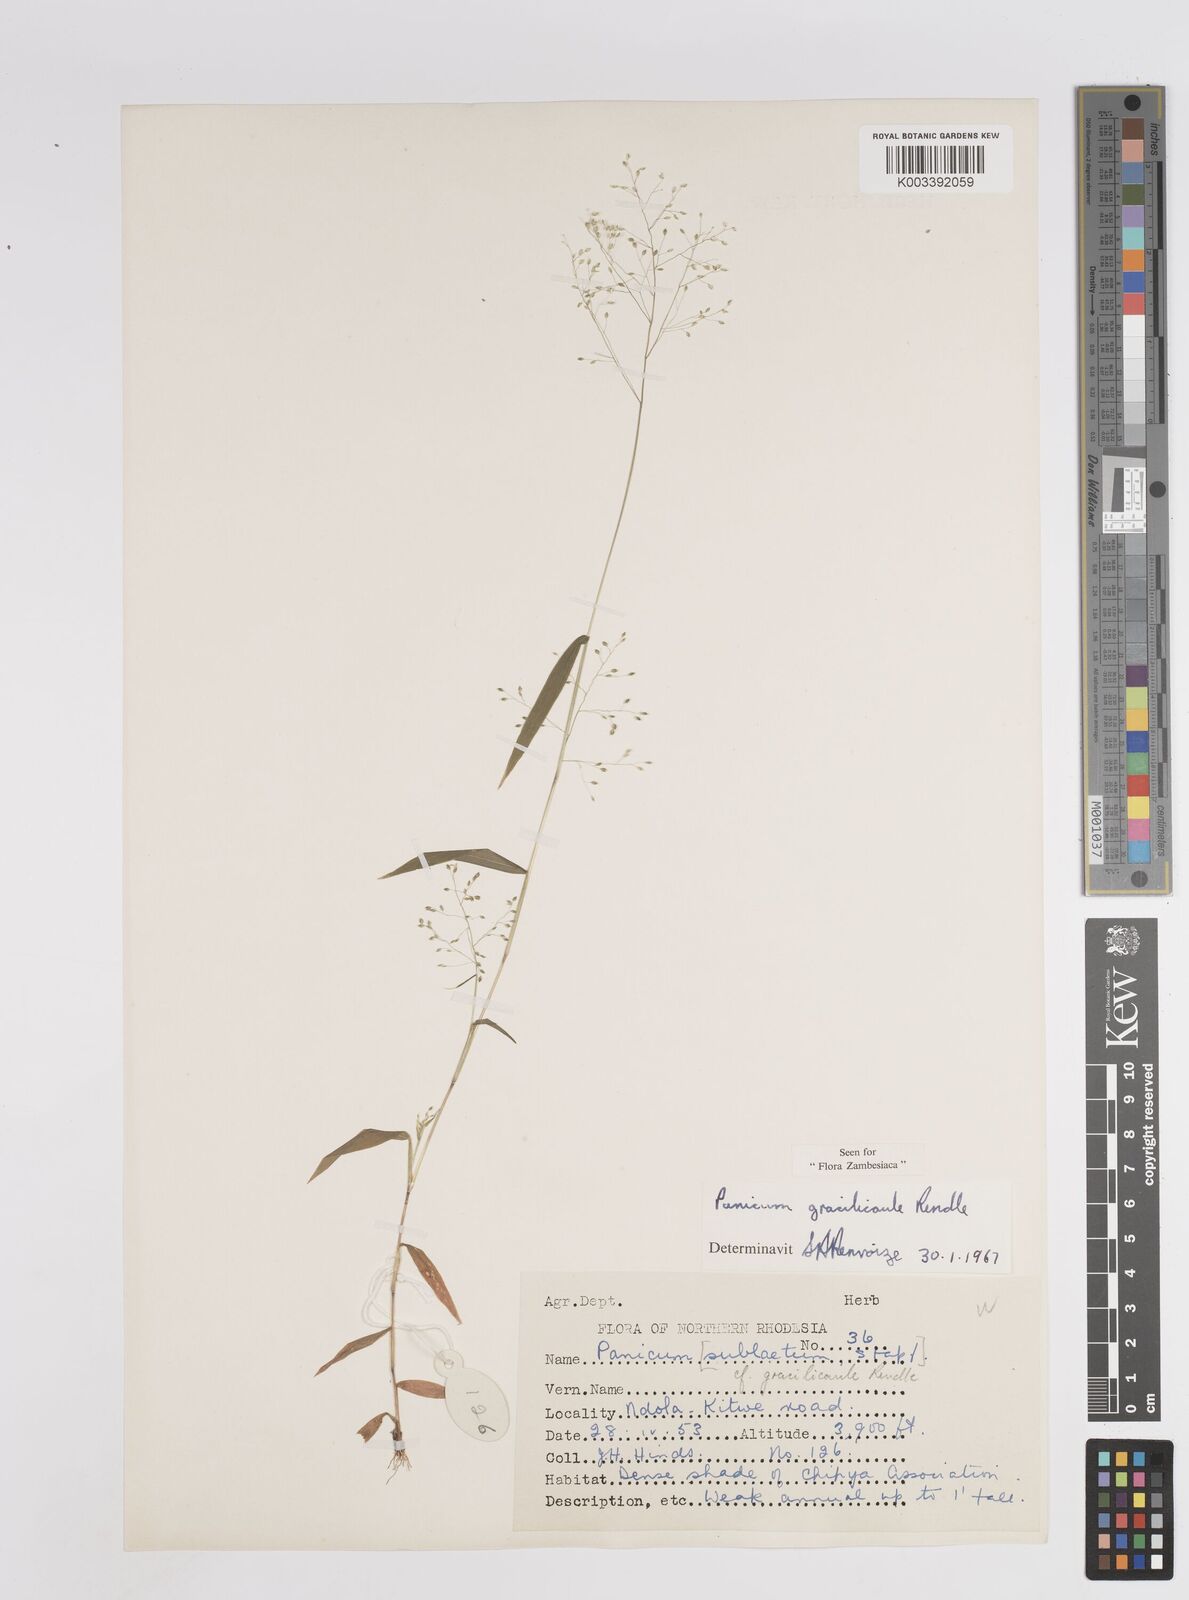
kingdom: Plantae
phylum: Tracheophyta
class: Liliopsida
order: Poales
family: Poaceae
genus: Trichanthecium
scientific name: Trichanthecium gracilicaule
